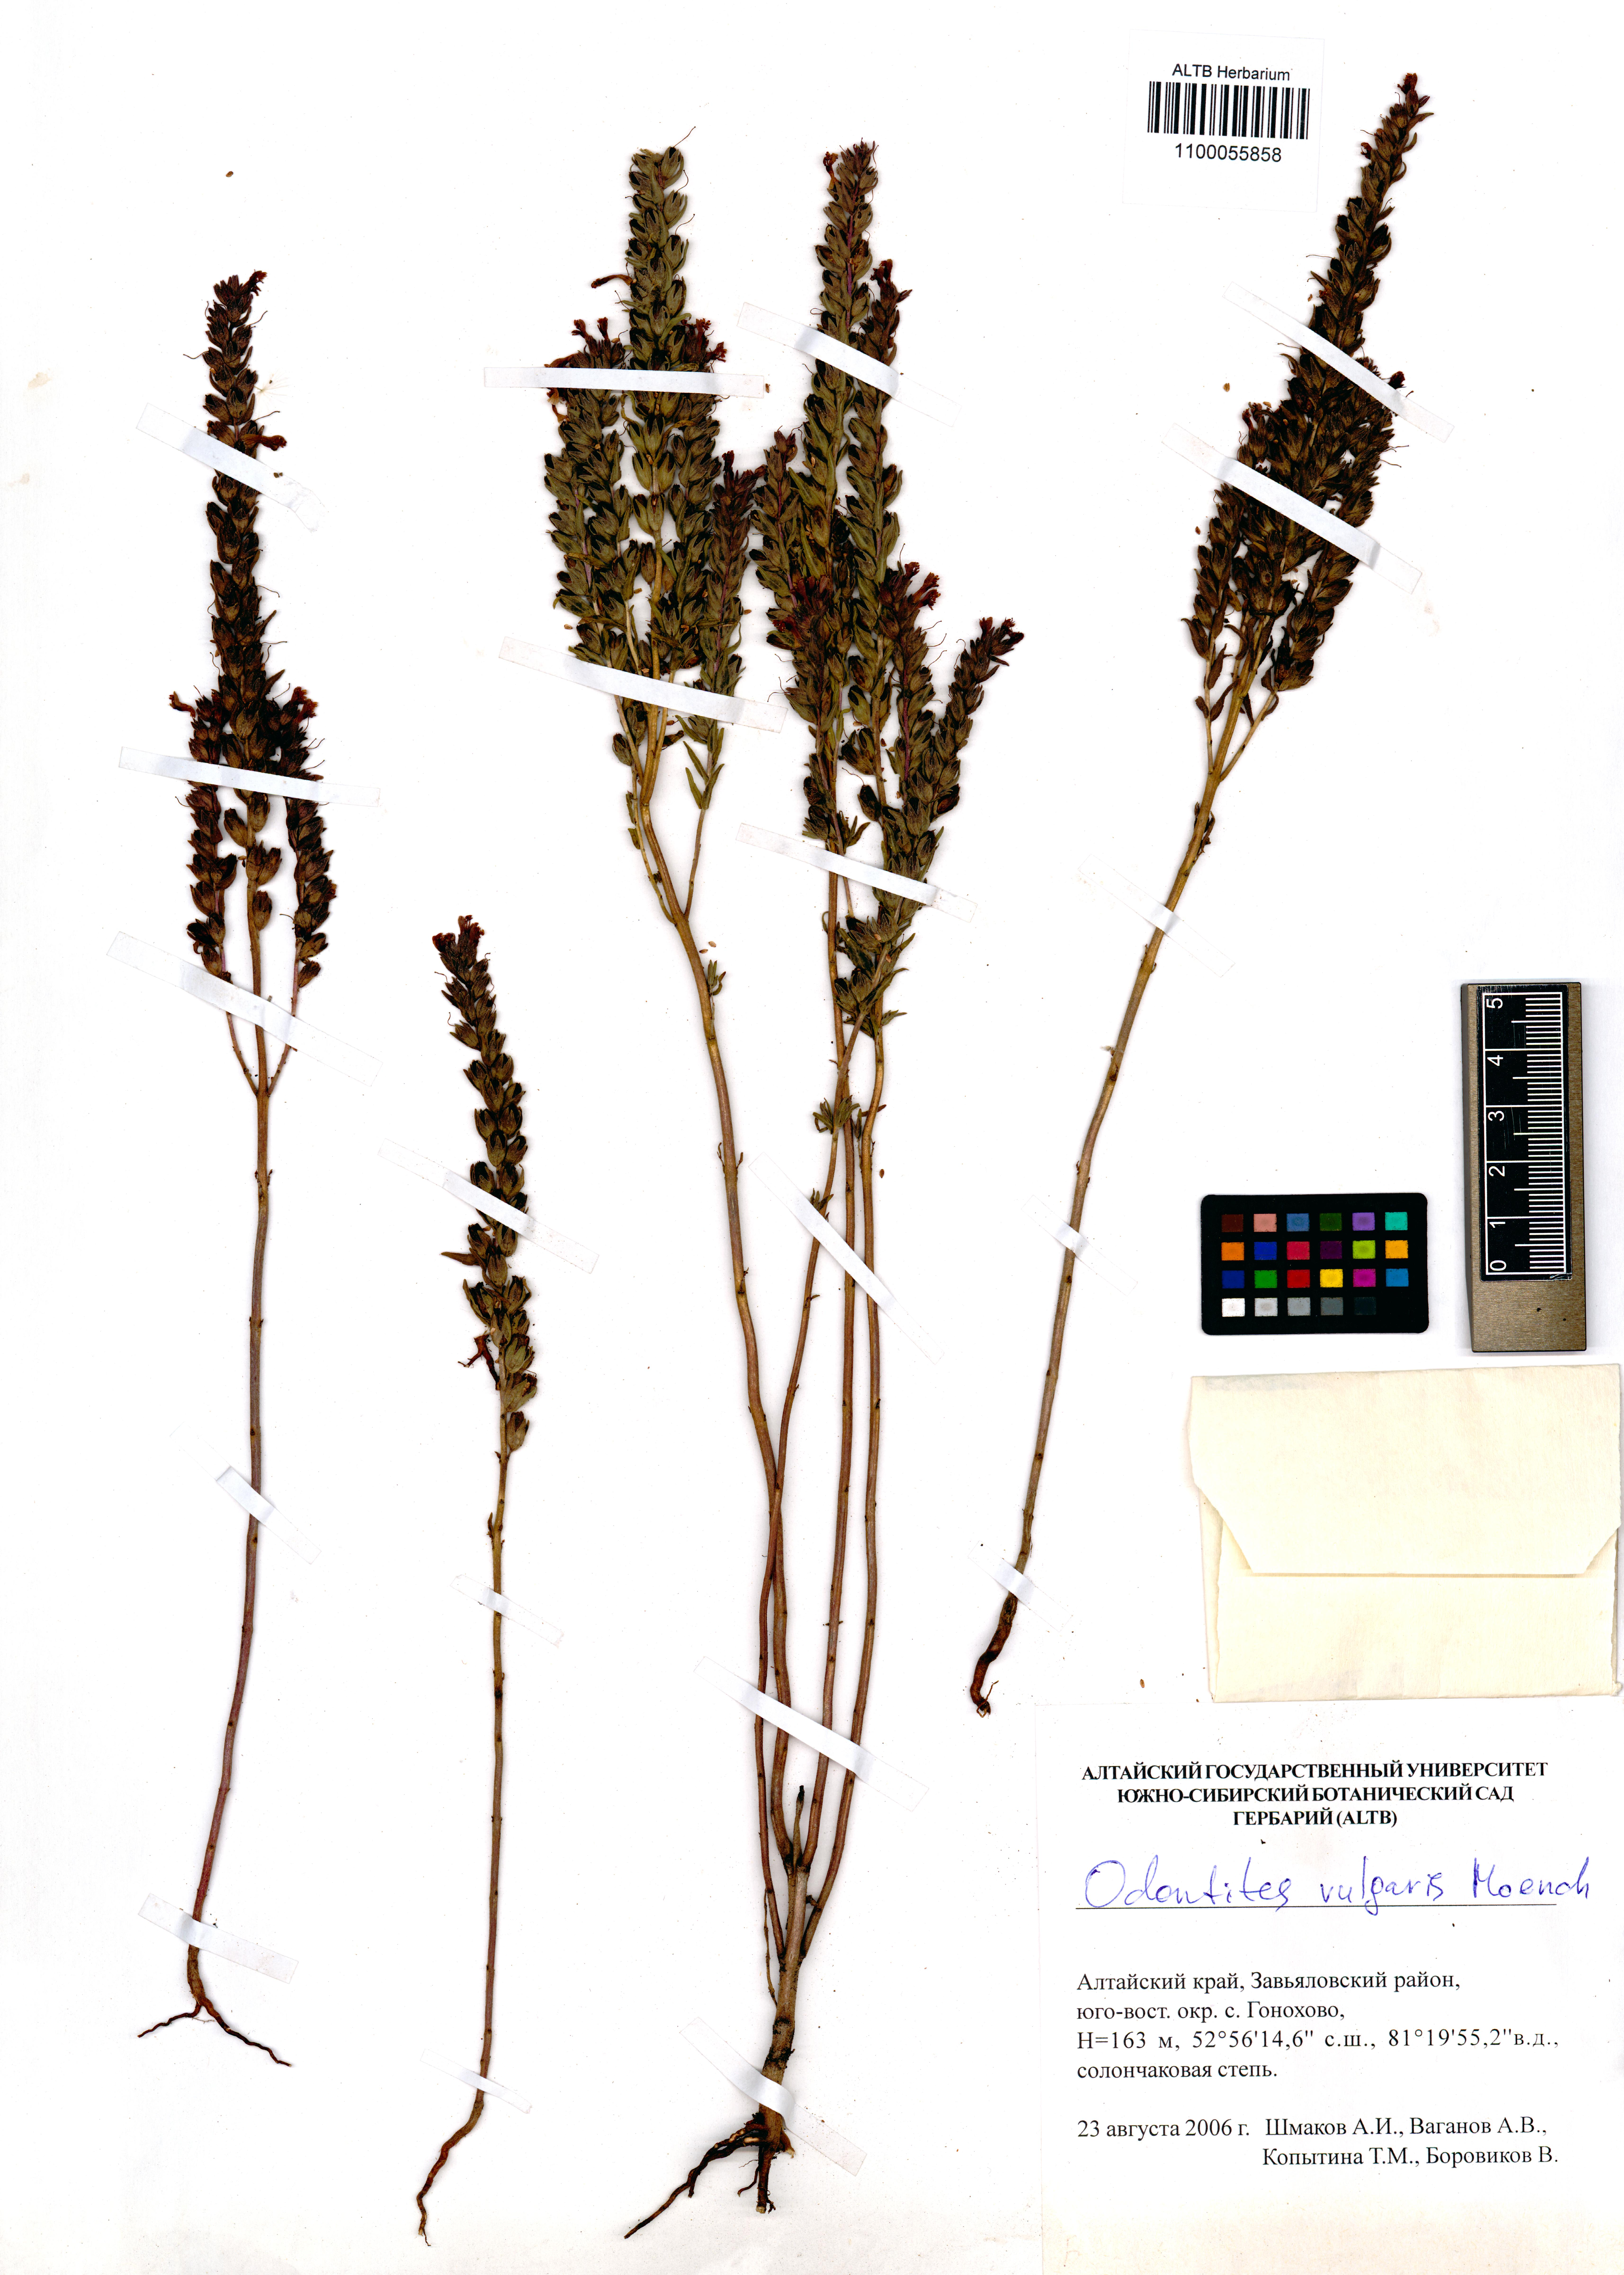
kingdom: Plantae
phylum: Tracheophyta
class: Magnoliopsida
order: Lamiales
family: Orobanchaceae
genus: Odontites
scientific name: Odontites vulgaris
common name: Broomrape
